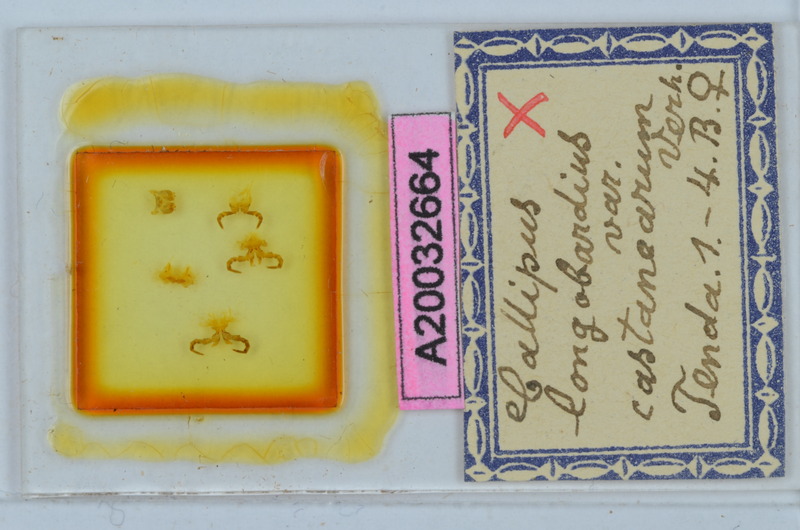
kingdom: Animalia
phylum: Arthropoda
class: Diplopoda
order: Callipodida
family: Callipodidae
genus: Callipus
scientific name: Callipus foetidissimus
